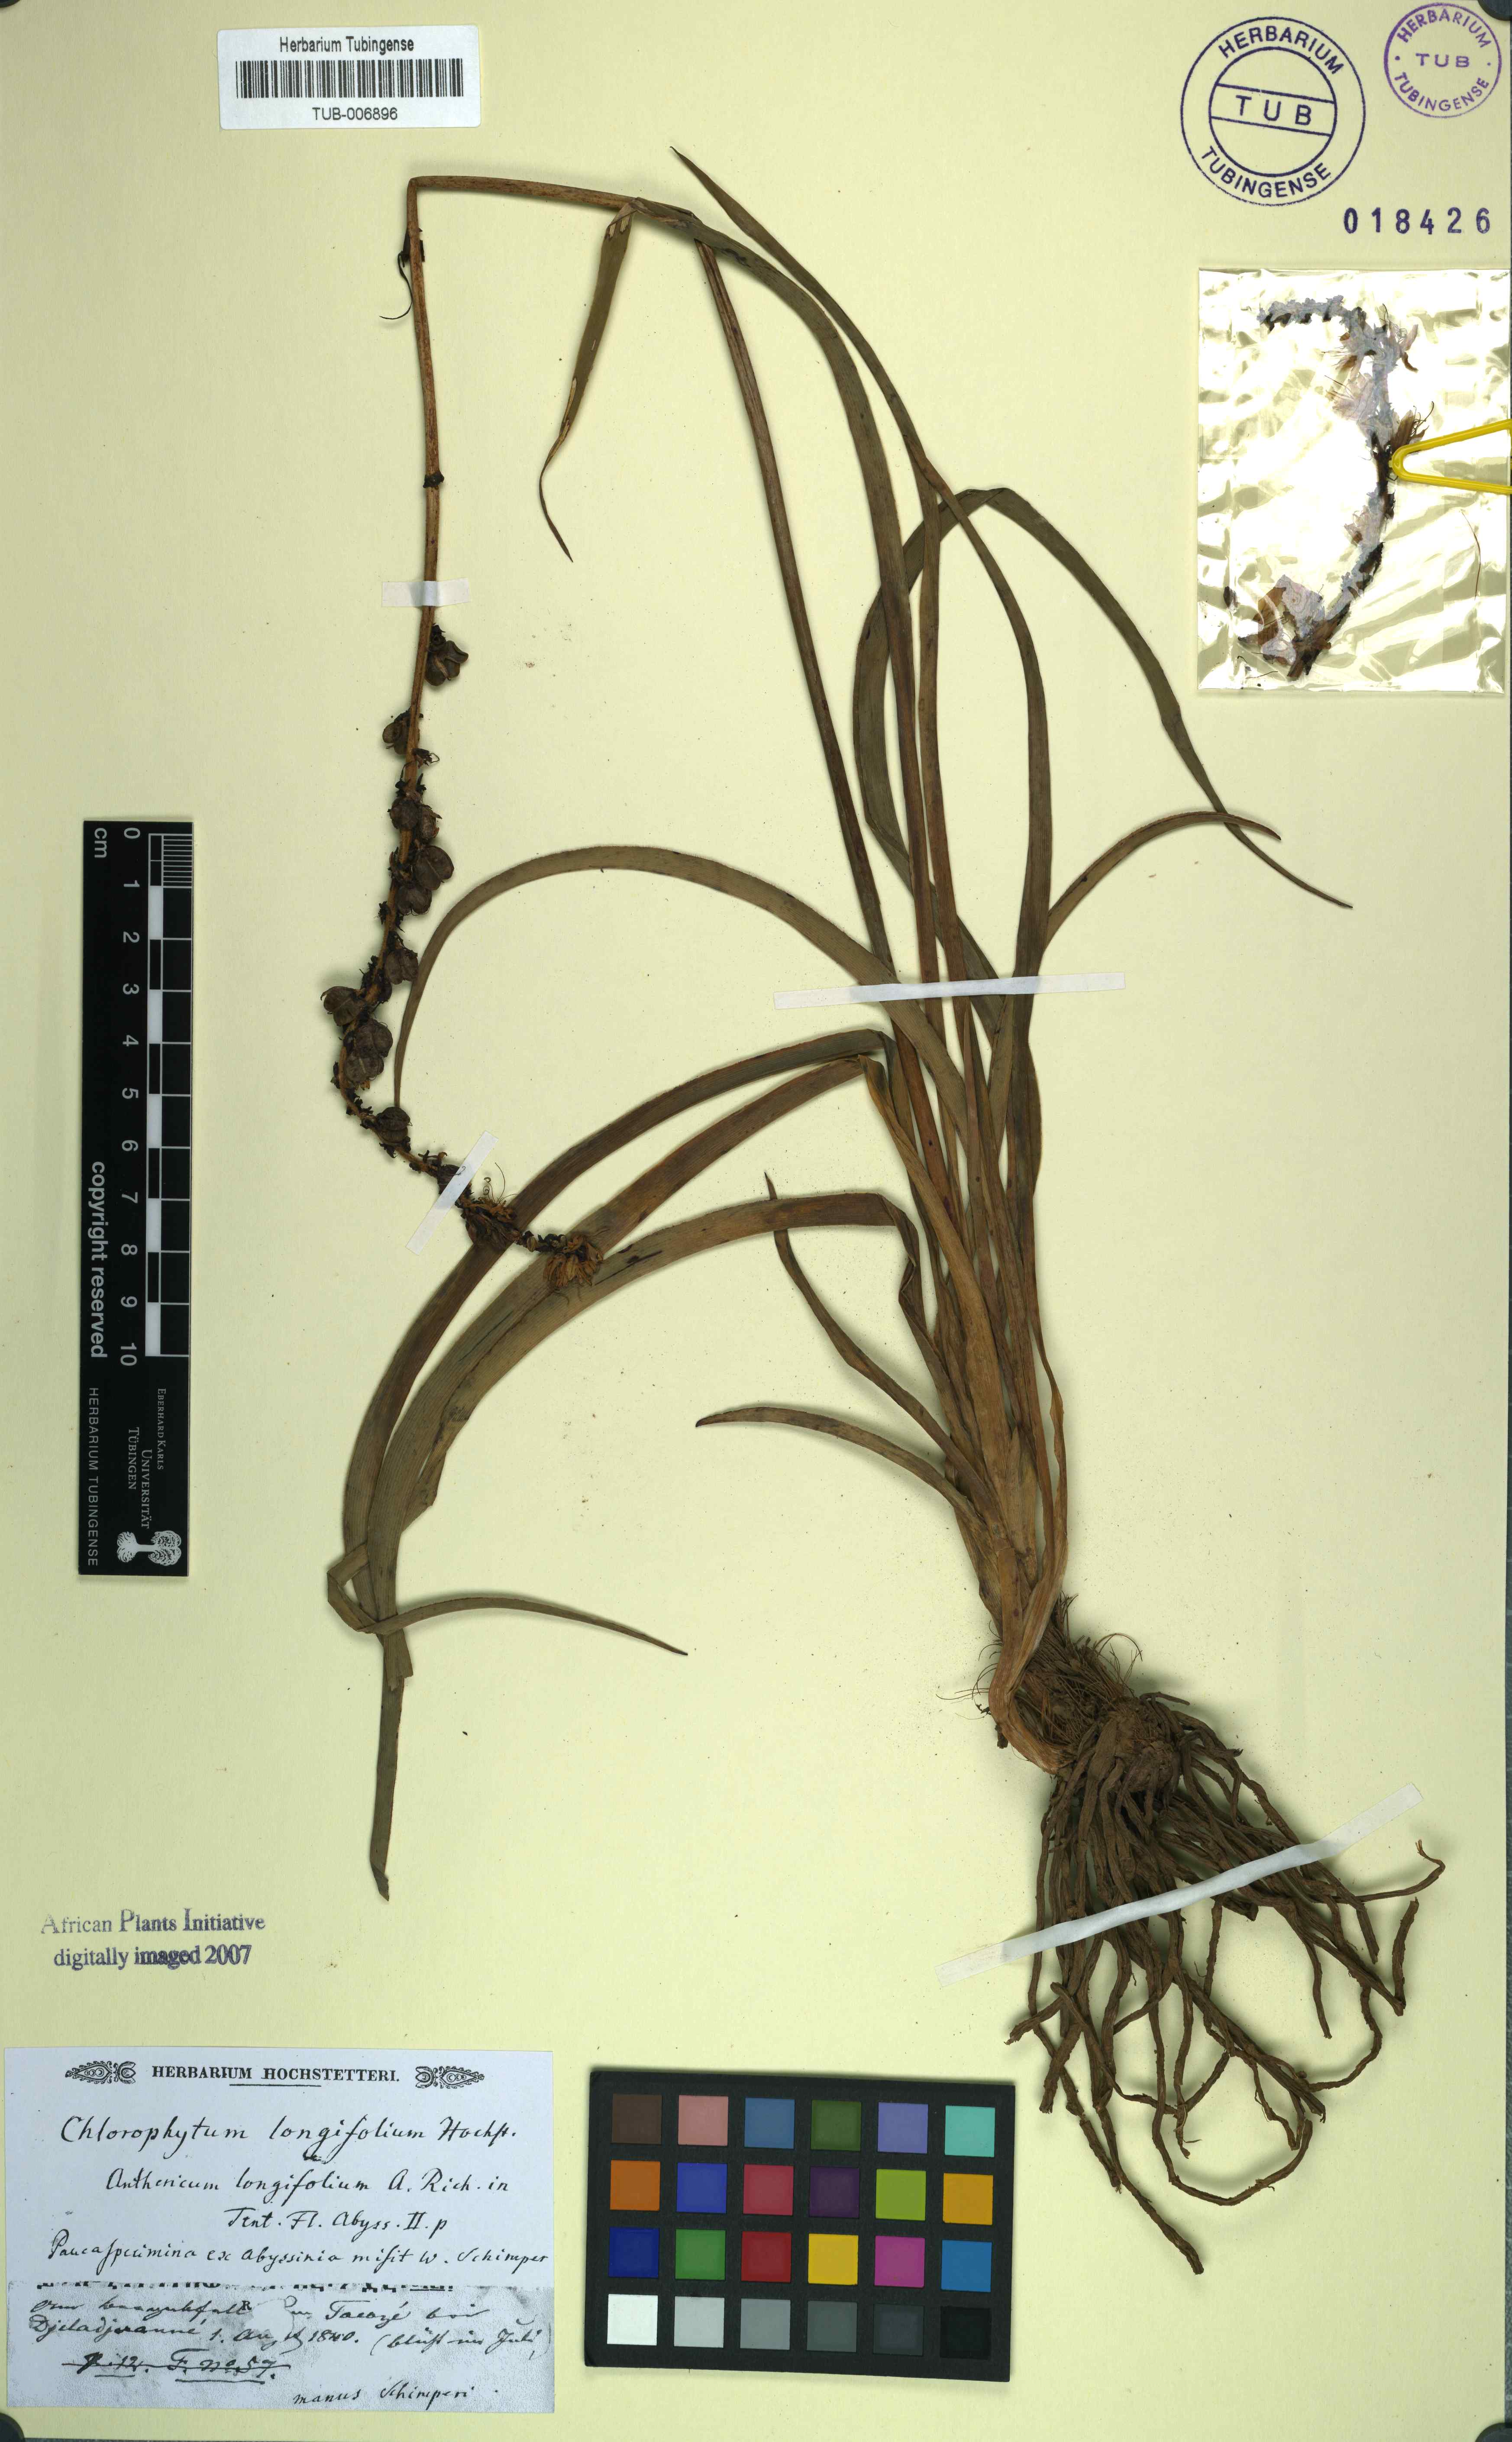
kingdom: Plantae
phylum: Tracheophyta
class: Liliopsida
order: Asparagales
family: Asparagaceae
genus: Chlorophytum
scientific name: Chlorophytum longifolium
